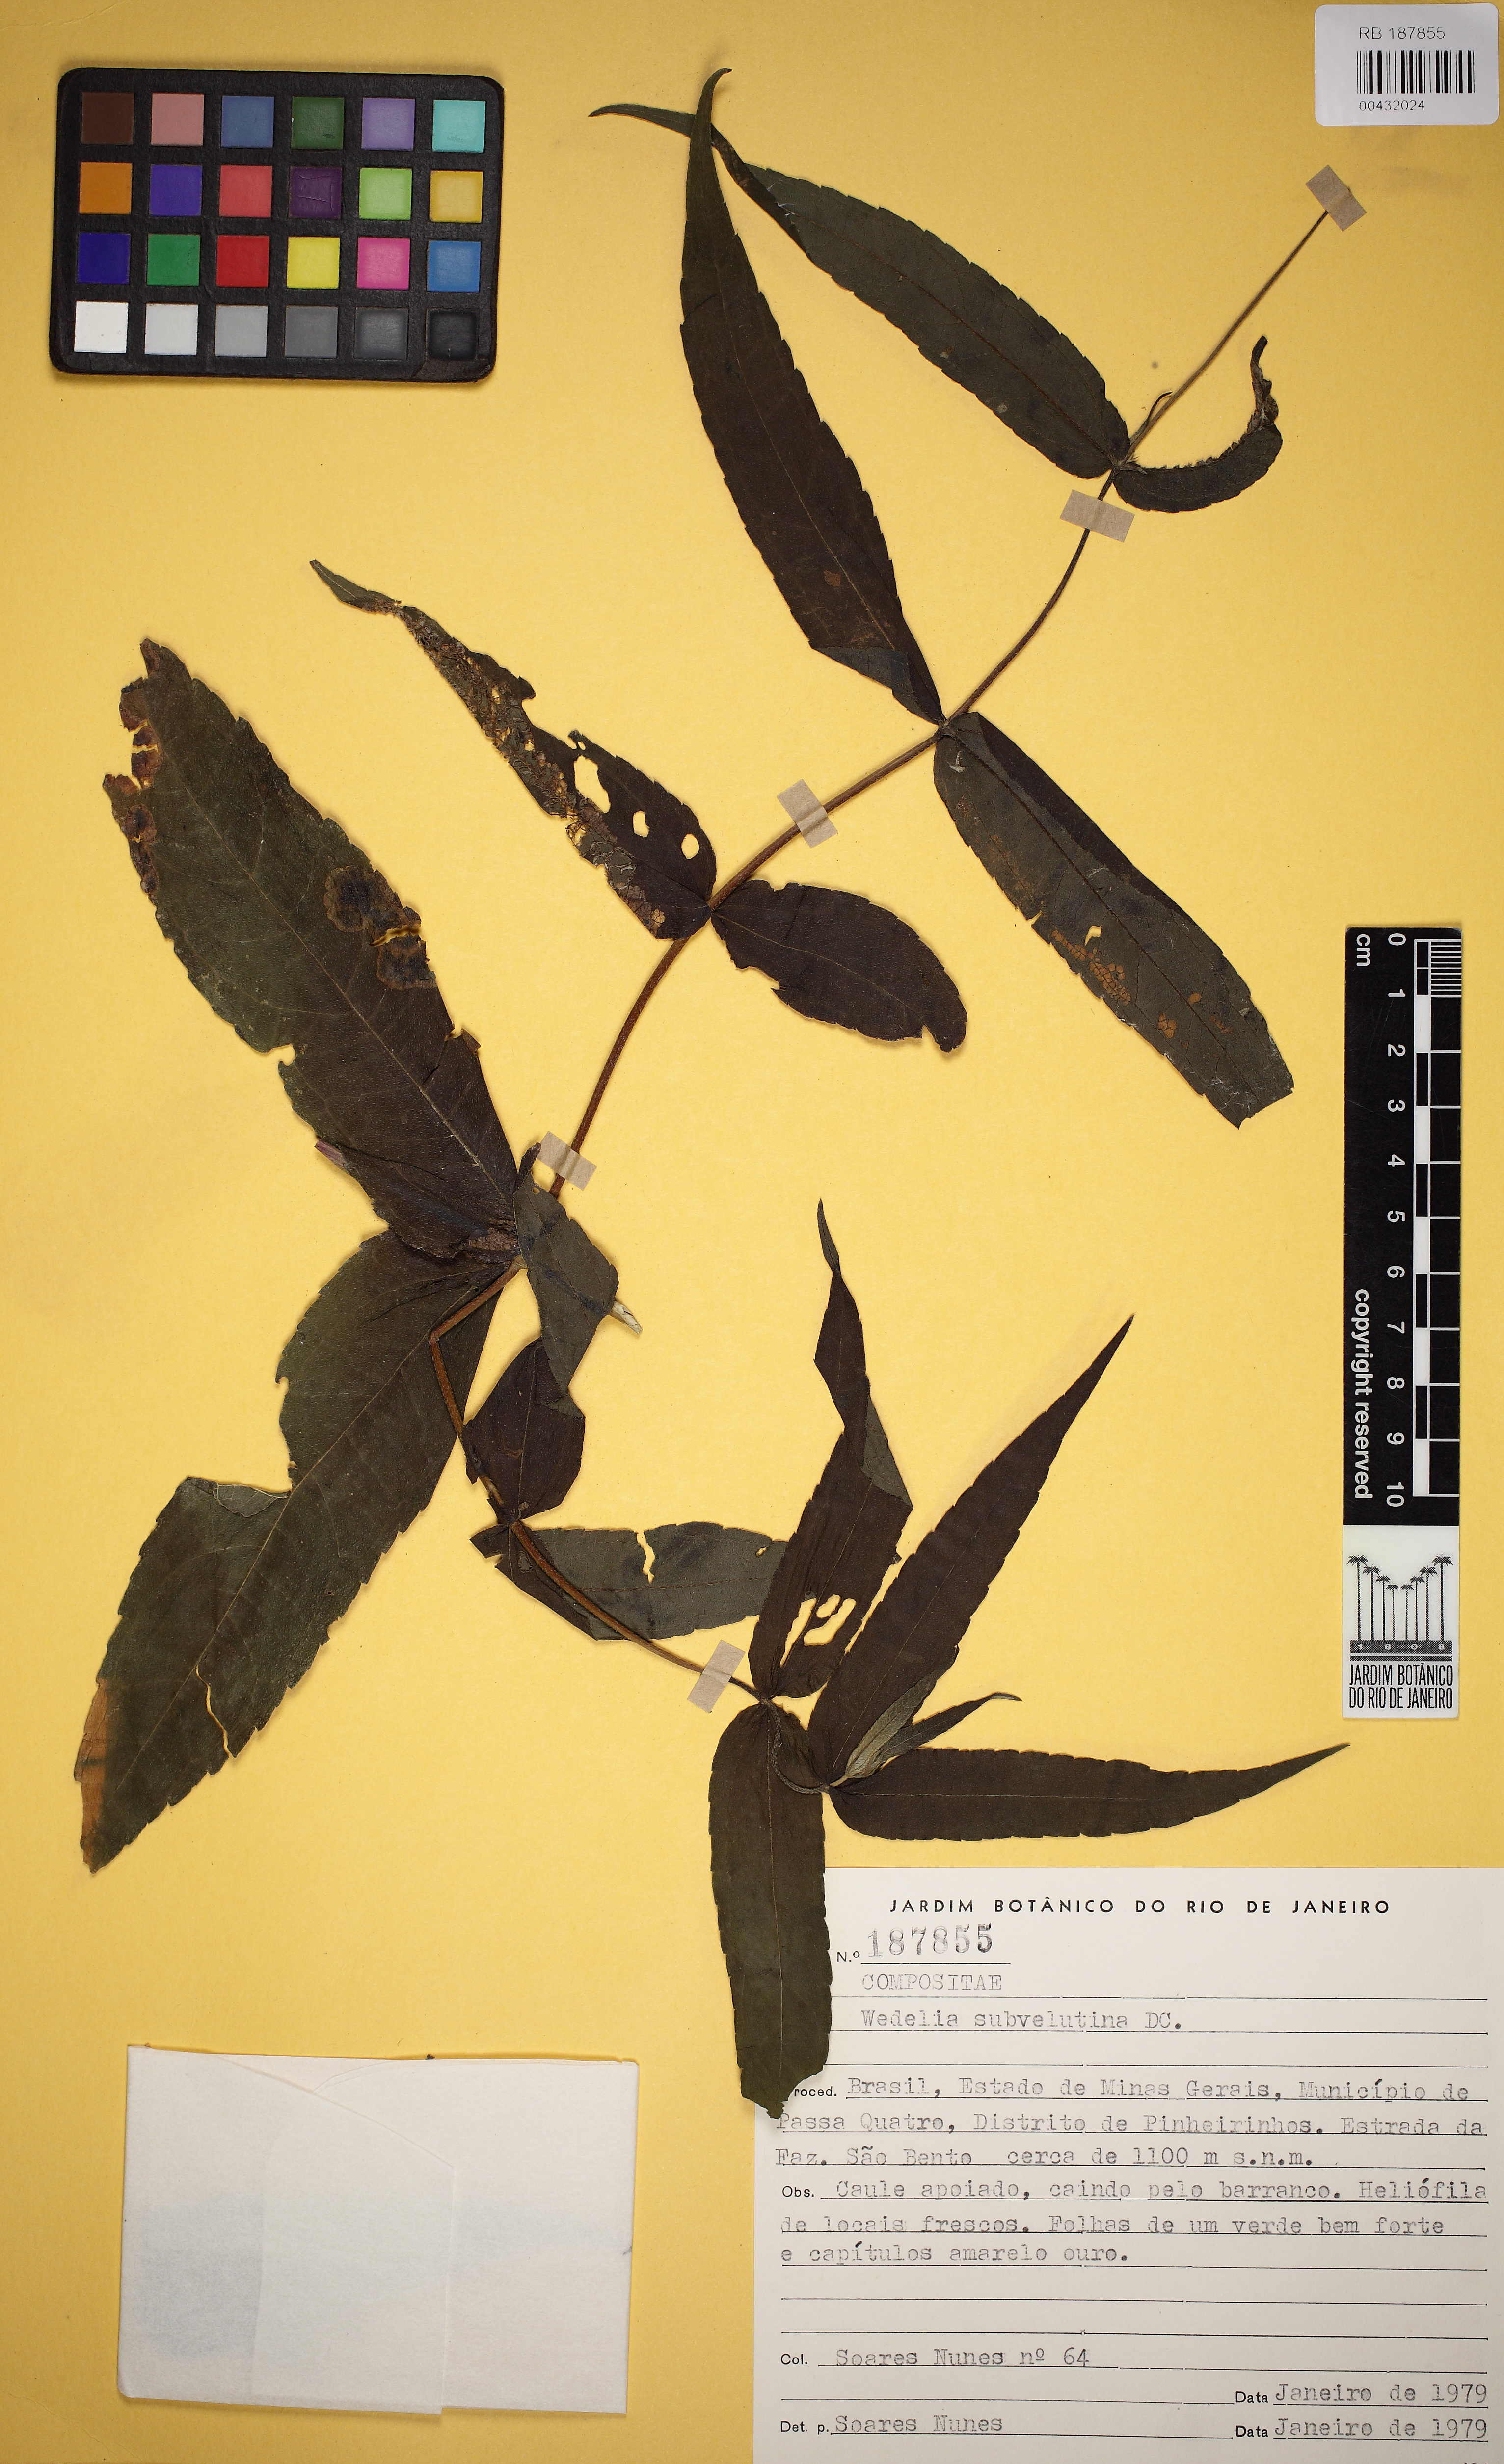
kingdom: Plantae
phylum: Tracheophyta
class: Magnoliopsida
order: Asterales
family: Asteraceae
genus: Wedelia
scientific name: Wedelia subvelutina
